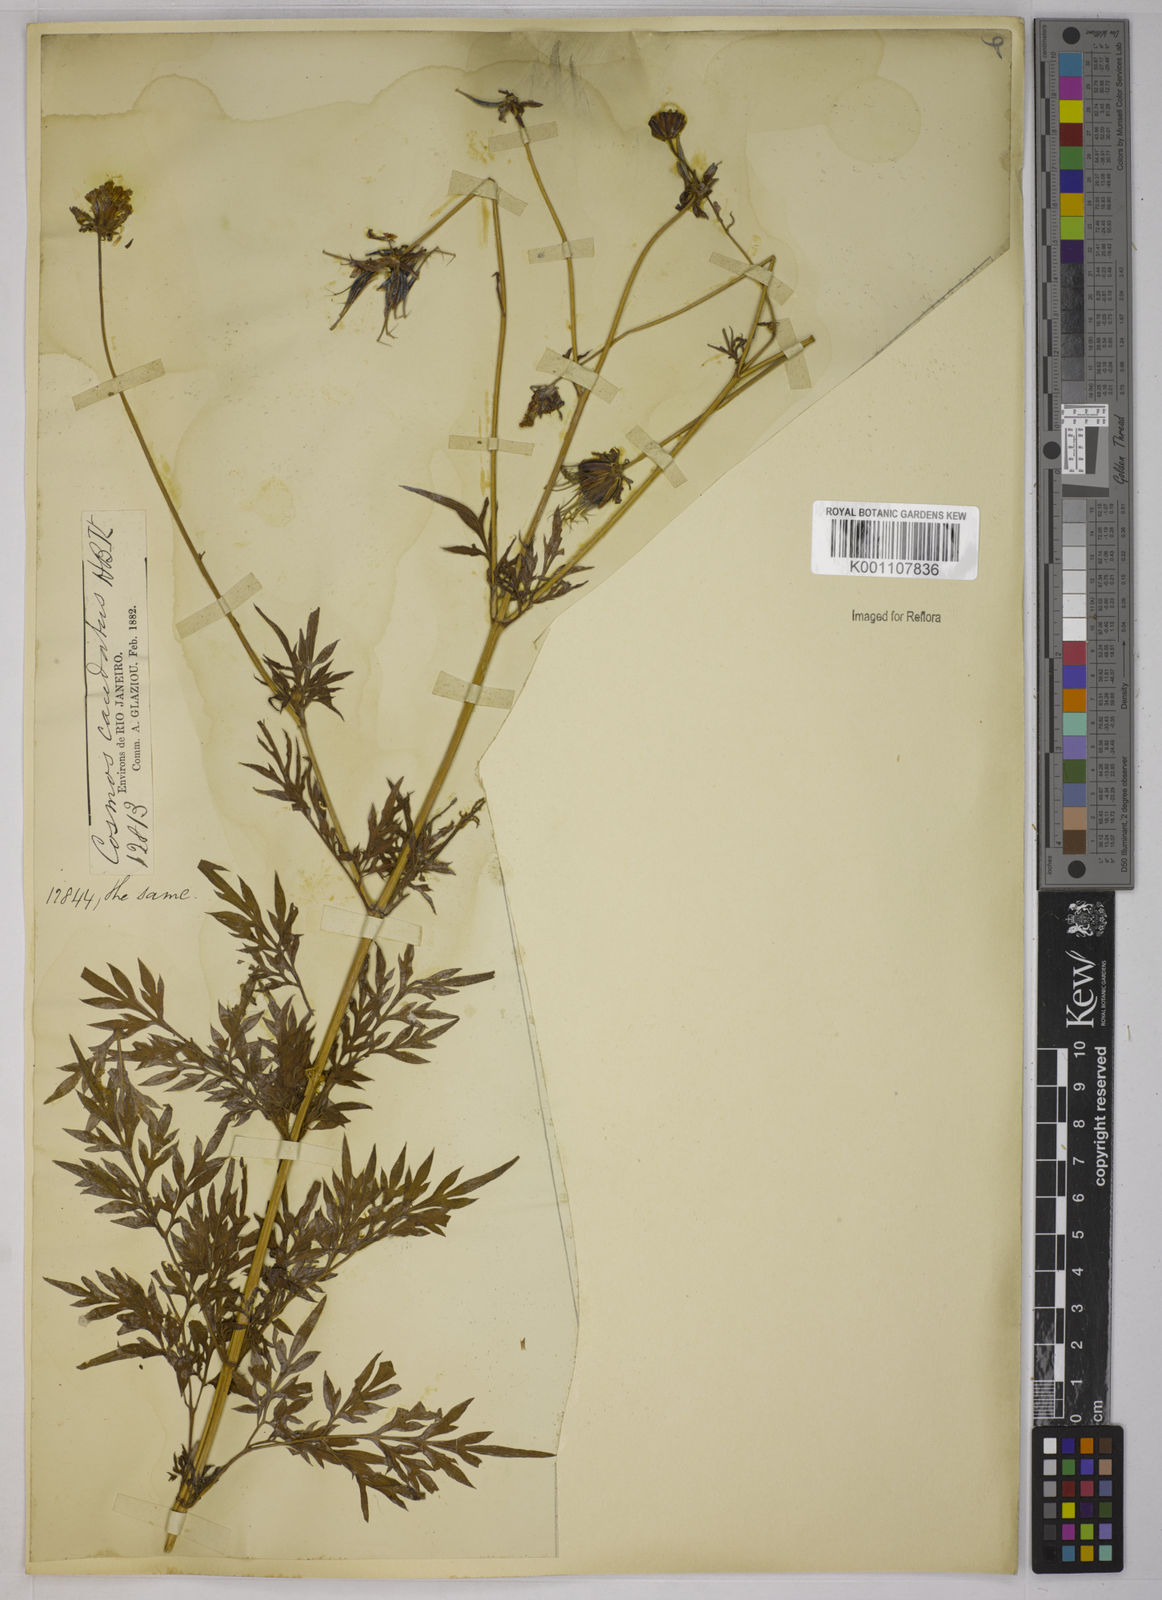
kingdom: Plantae
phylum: Tracheophyta
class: Magnoliopsida
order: Asterales
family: Asteraceae
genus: Cosmos
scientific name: Cosmos caudatus
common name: Wild cosmos
